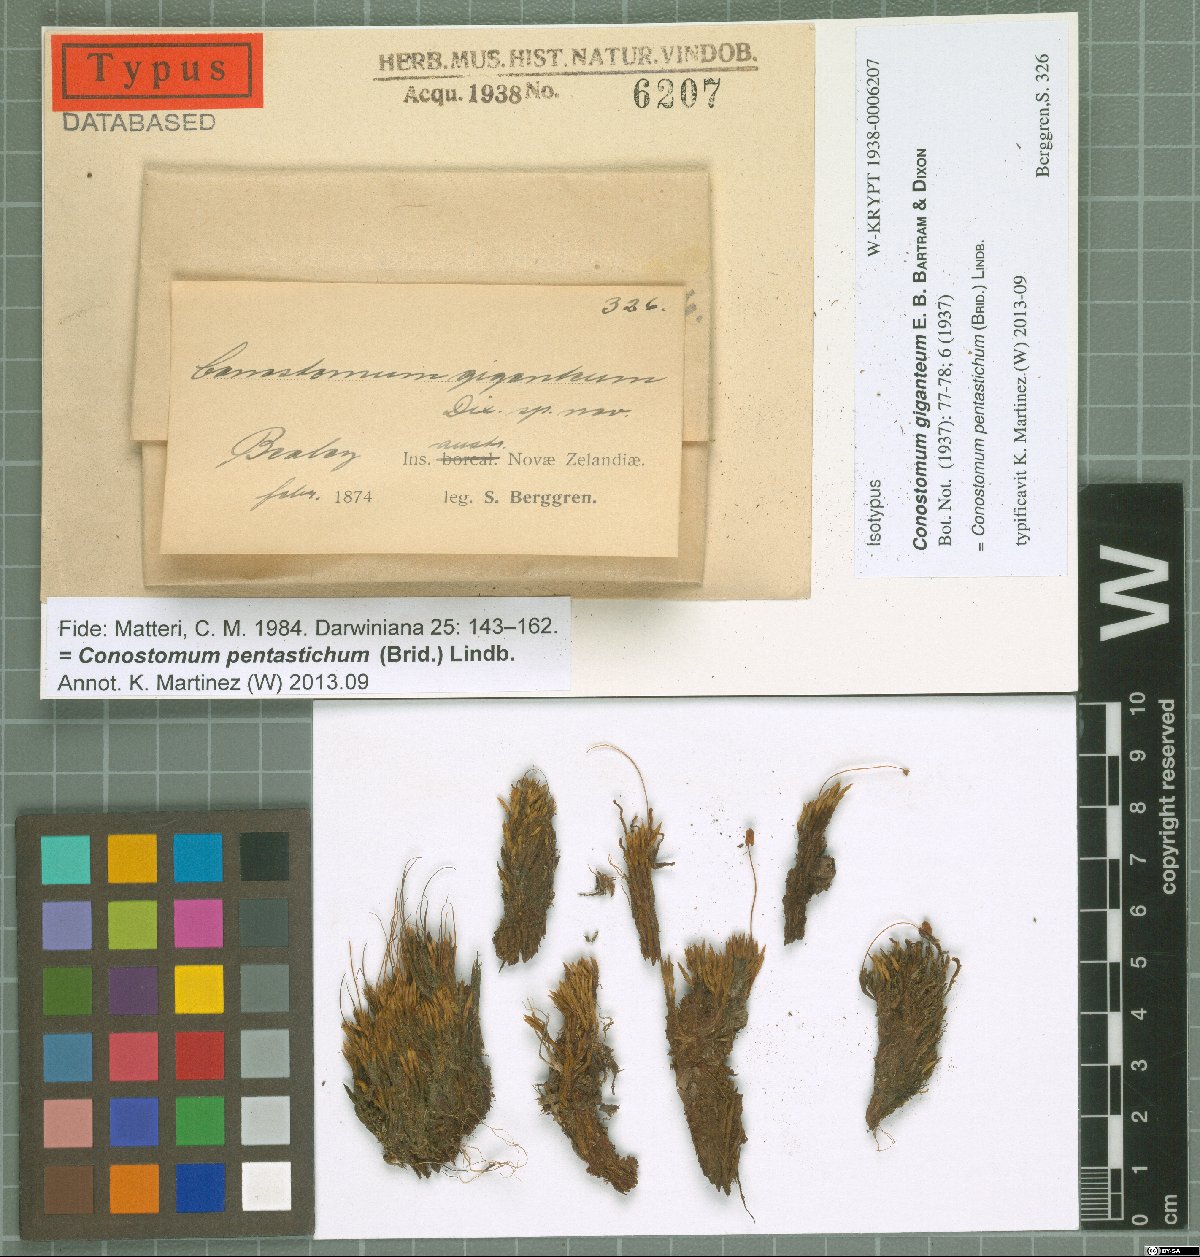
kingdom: Plantae
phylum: Bryophyta
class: Bryopsida
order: Bartramiales
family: Bartramiaceae
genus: Conostomum
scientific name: Conostomum pentastichum
